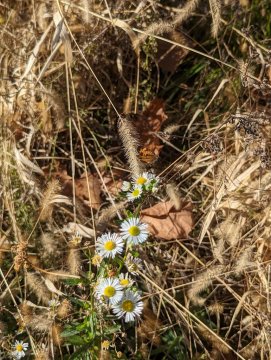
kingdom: Animalia
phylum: Arthropoda
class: Insecta
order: Lepidoptera
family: Nymphalidae
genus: Phyciodes
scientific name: Phyciodes tharos
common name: Pearl Crescent
